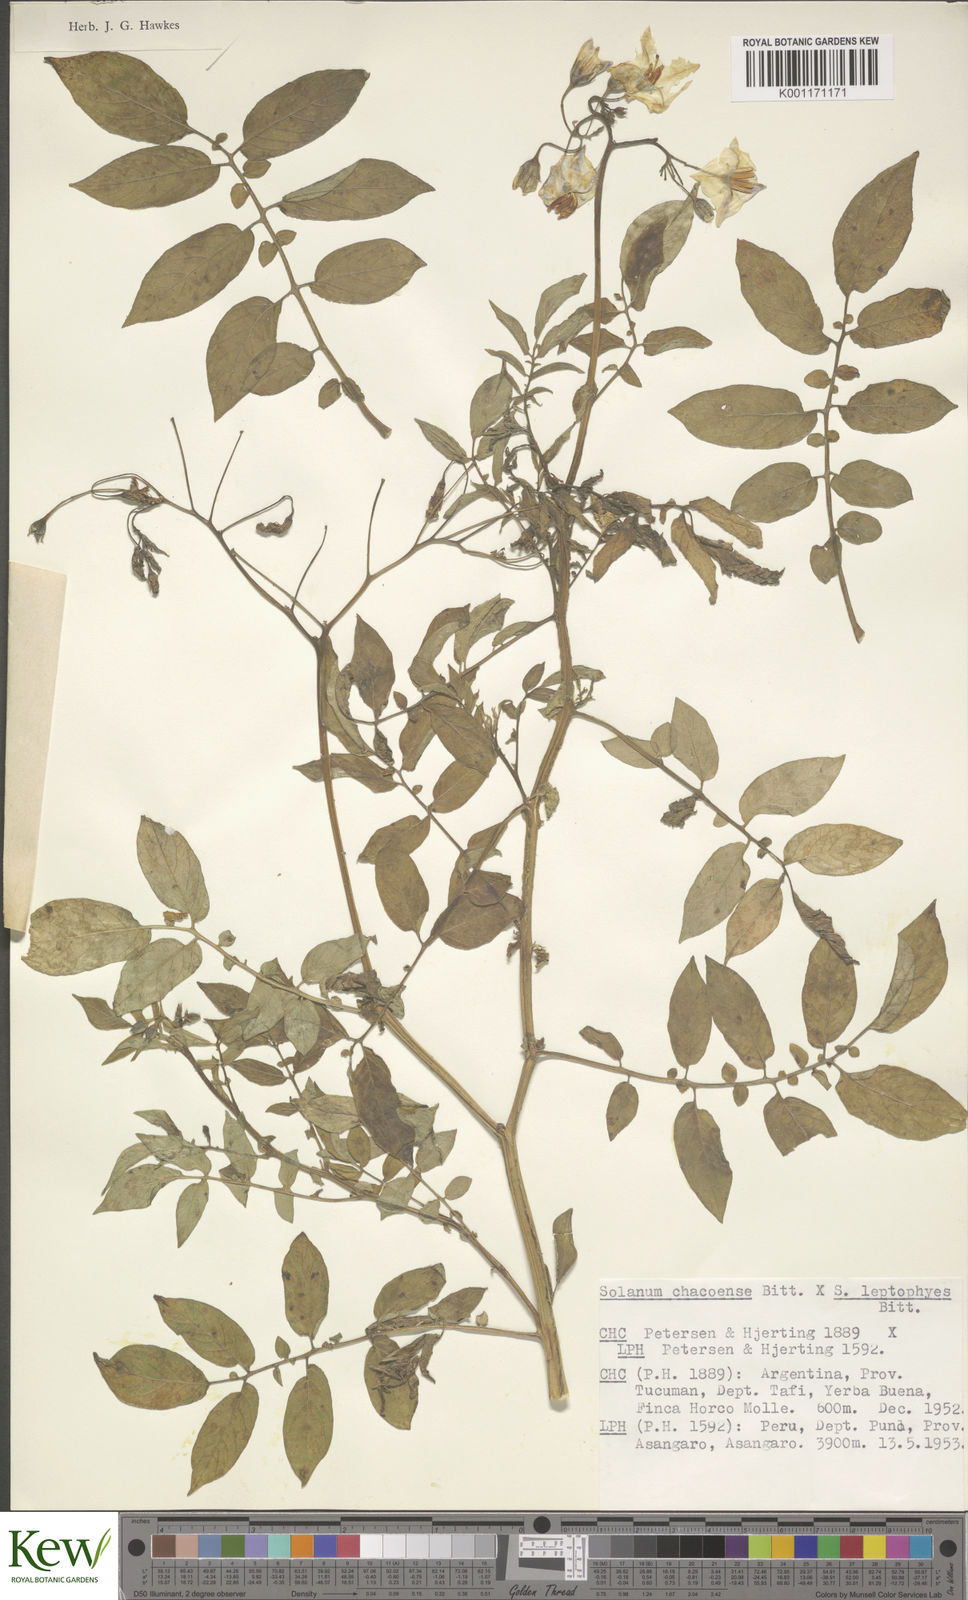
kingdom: Plantae
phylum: Tracheophyta
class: Magnoliopsida
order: Solanales
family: Solanaceae
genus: Solanum
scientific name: Solanum chacoense
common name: Chaco potato
